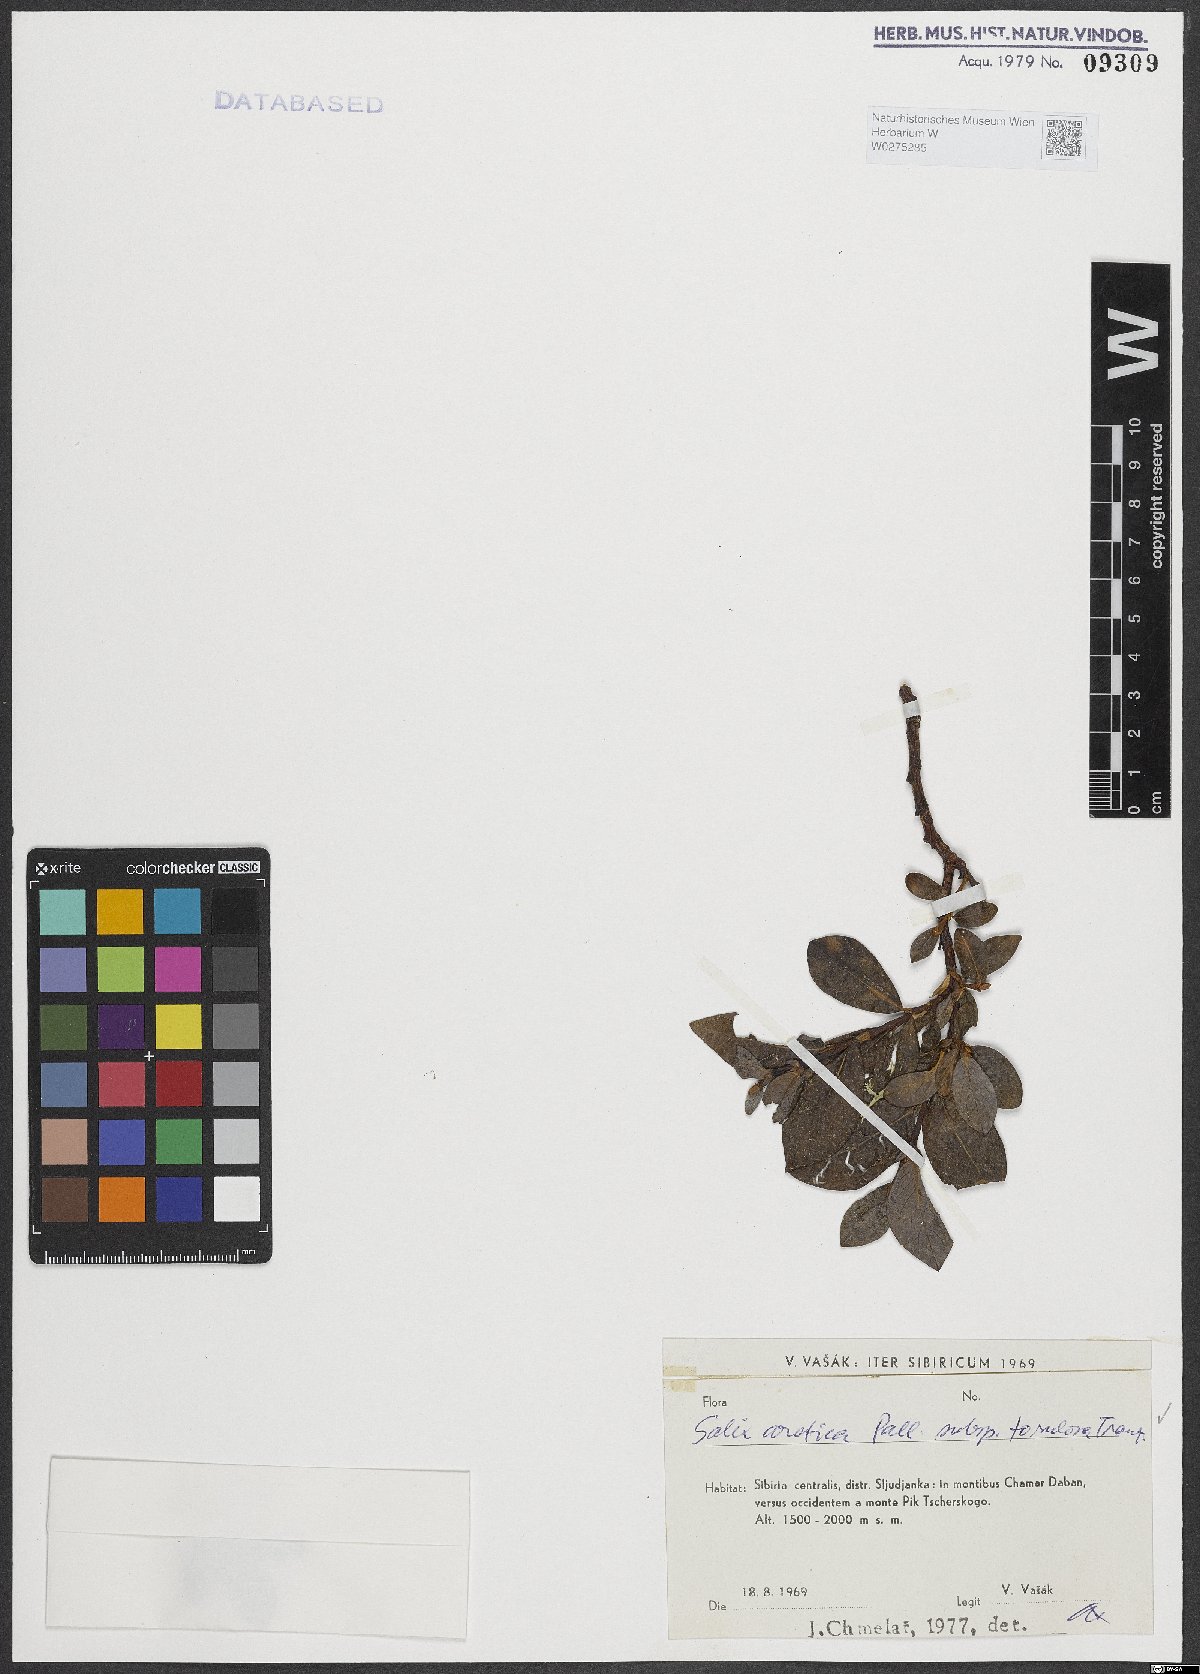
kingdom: Plantae
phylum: Tracheophyta
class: Magnoliopsida
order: Malpighiales
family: Salicaceae
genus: Salix
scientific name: Salix arctica
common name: Arctic willow
